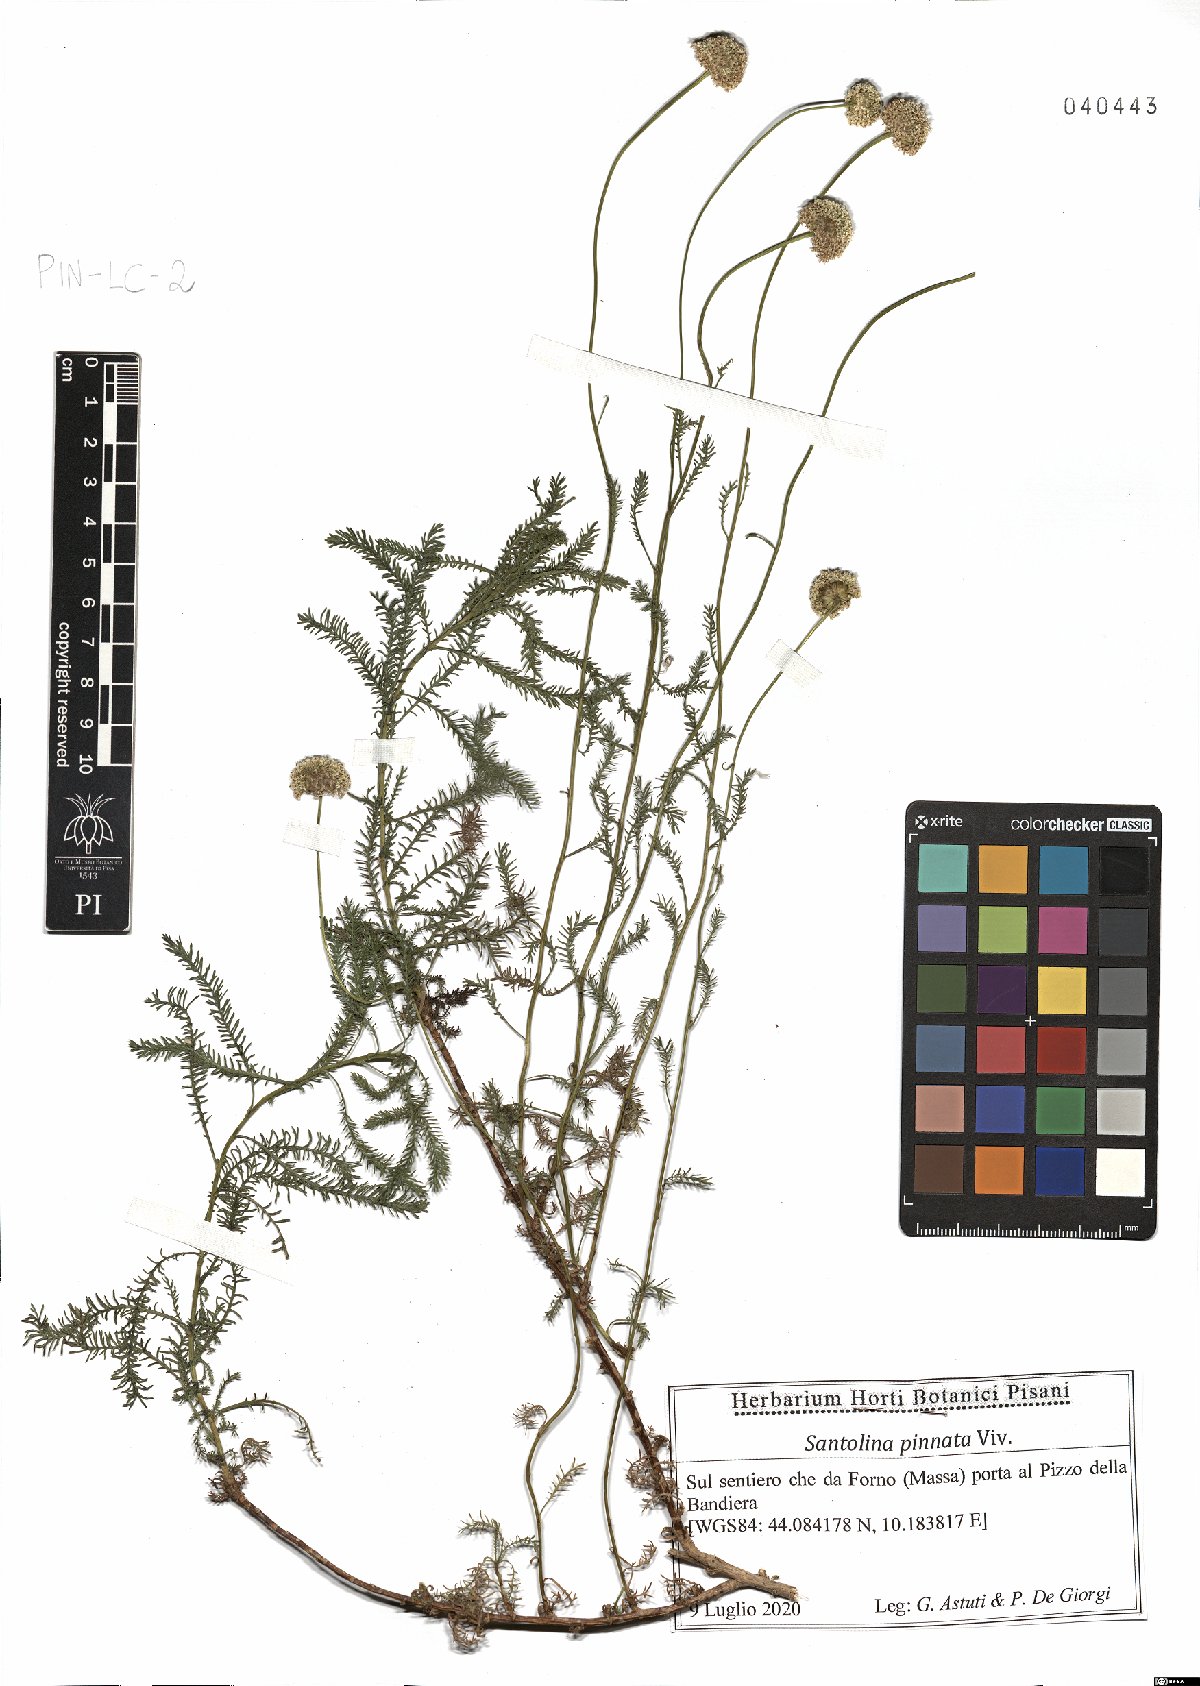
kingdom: Plantae
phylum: Tracheophyta
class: Magnoliopsida
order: Asterales
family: Asteraceae
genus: Santolina
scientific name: Santolina pinnata
